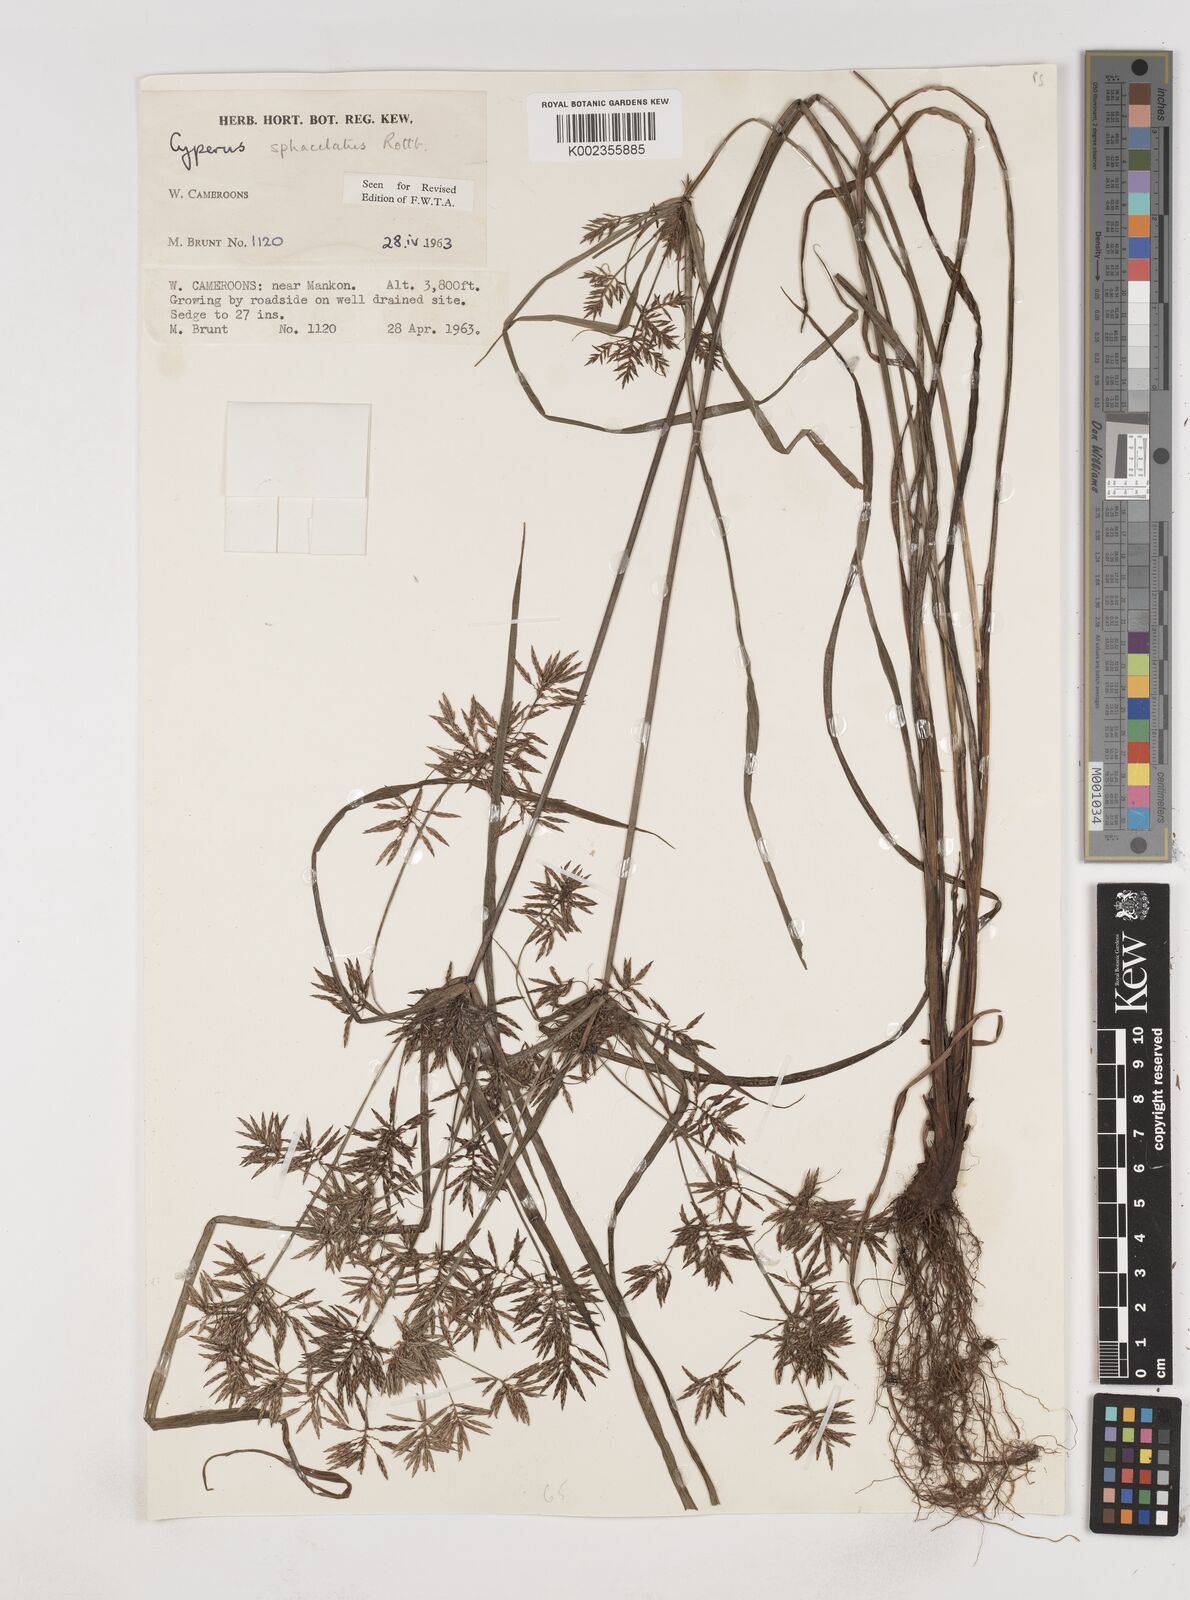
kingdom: Plantae
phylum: Tracheophyta
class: Liliopsida
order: Poales
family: Cyperaceae
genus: Cyperus
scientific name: Cyperus sphacelatus
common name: Roadside flatsedge
